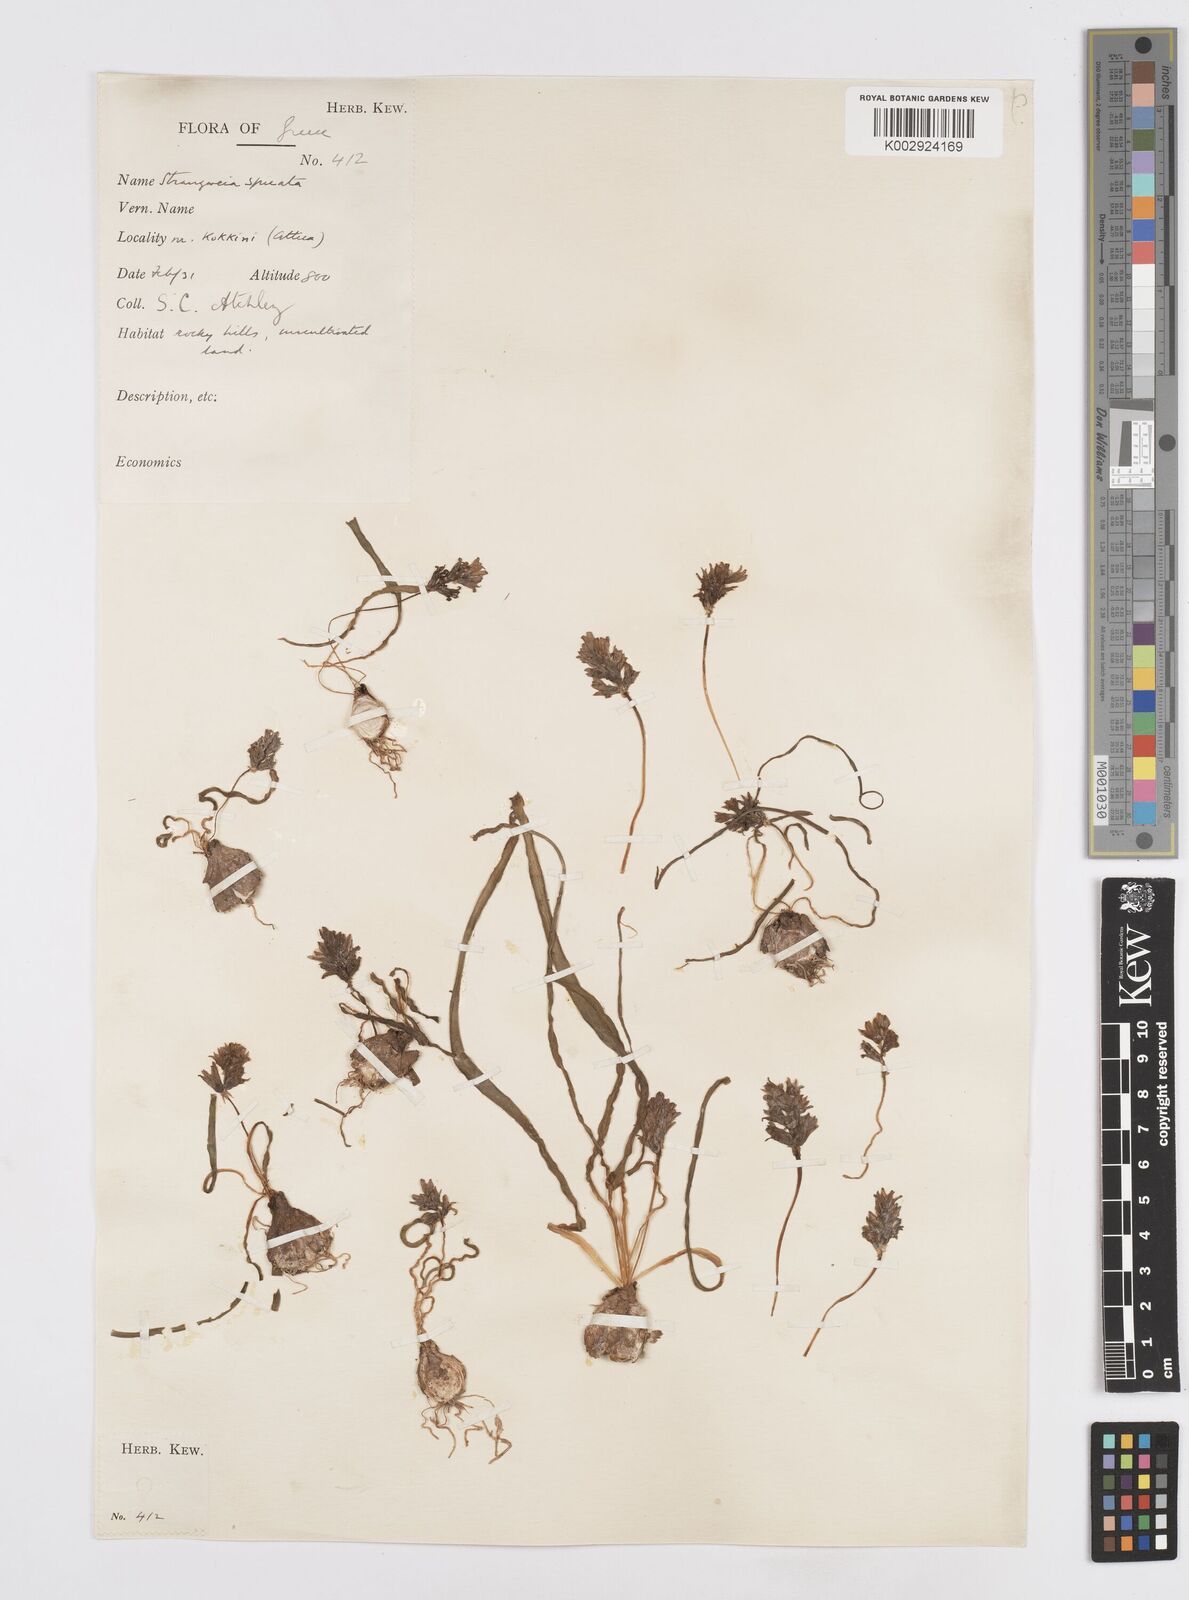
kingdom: Plantae
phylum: Tracheophyta
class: Liliopsida
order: Asparagales
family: Asparagaceae
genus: Bellevalia
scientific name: Bellevalia hyacinthoides
